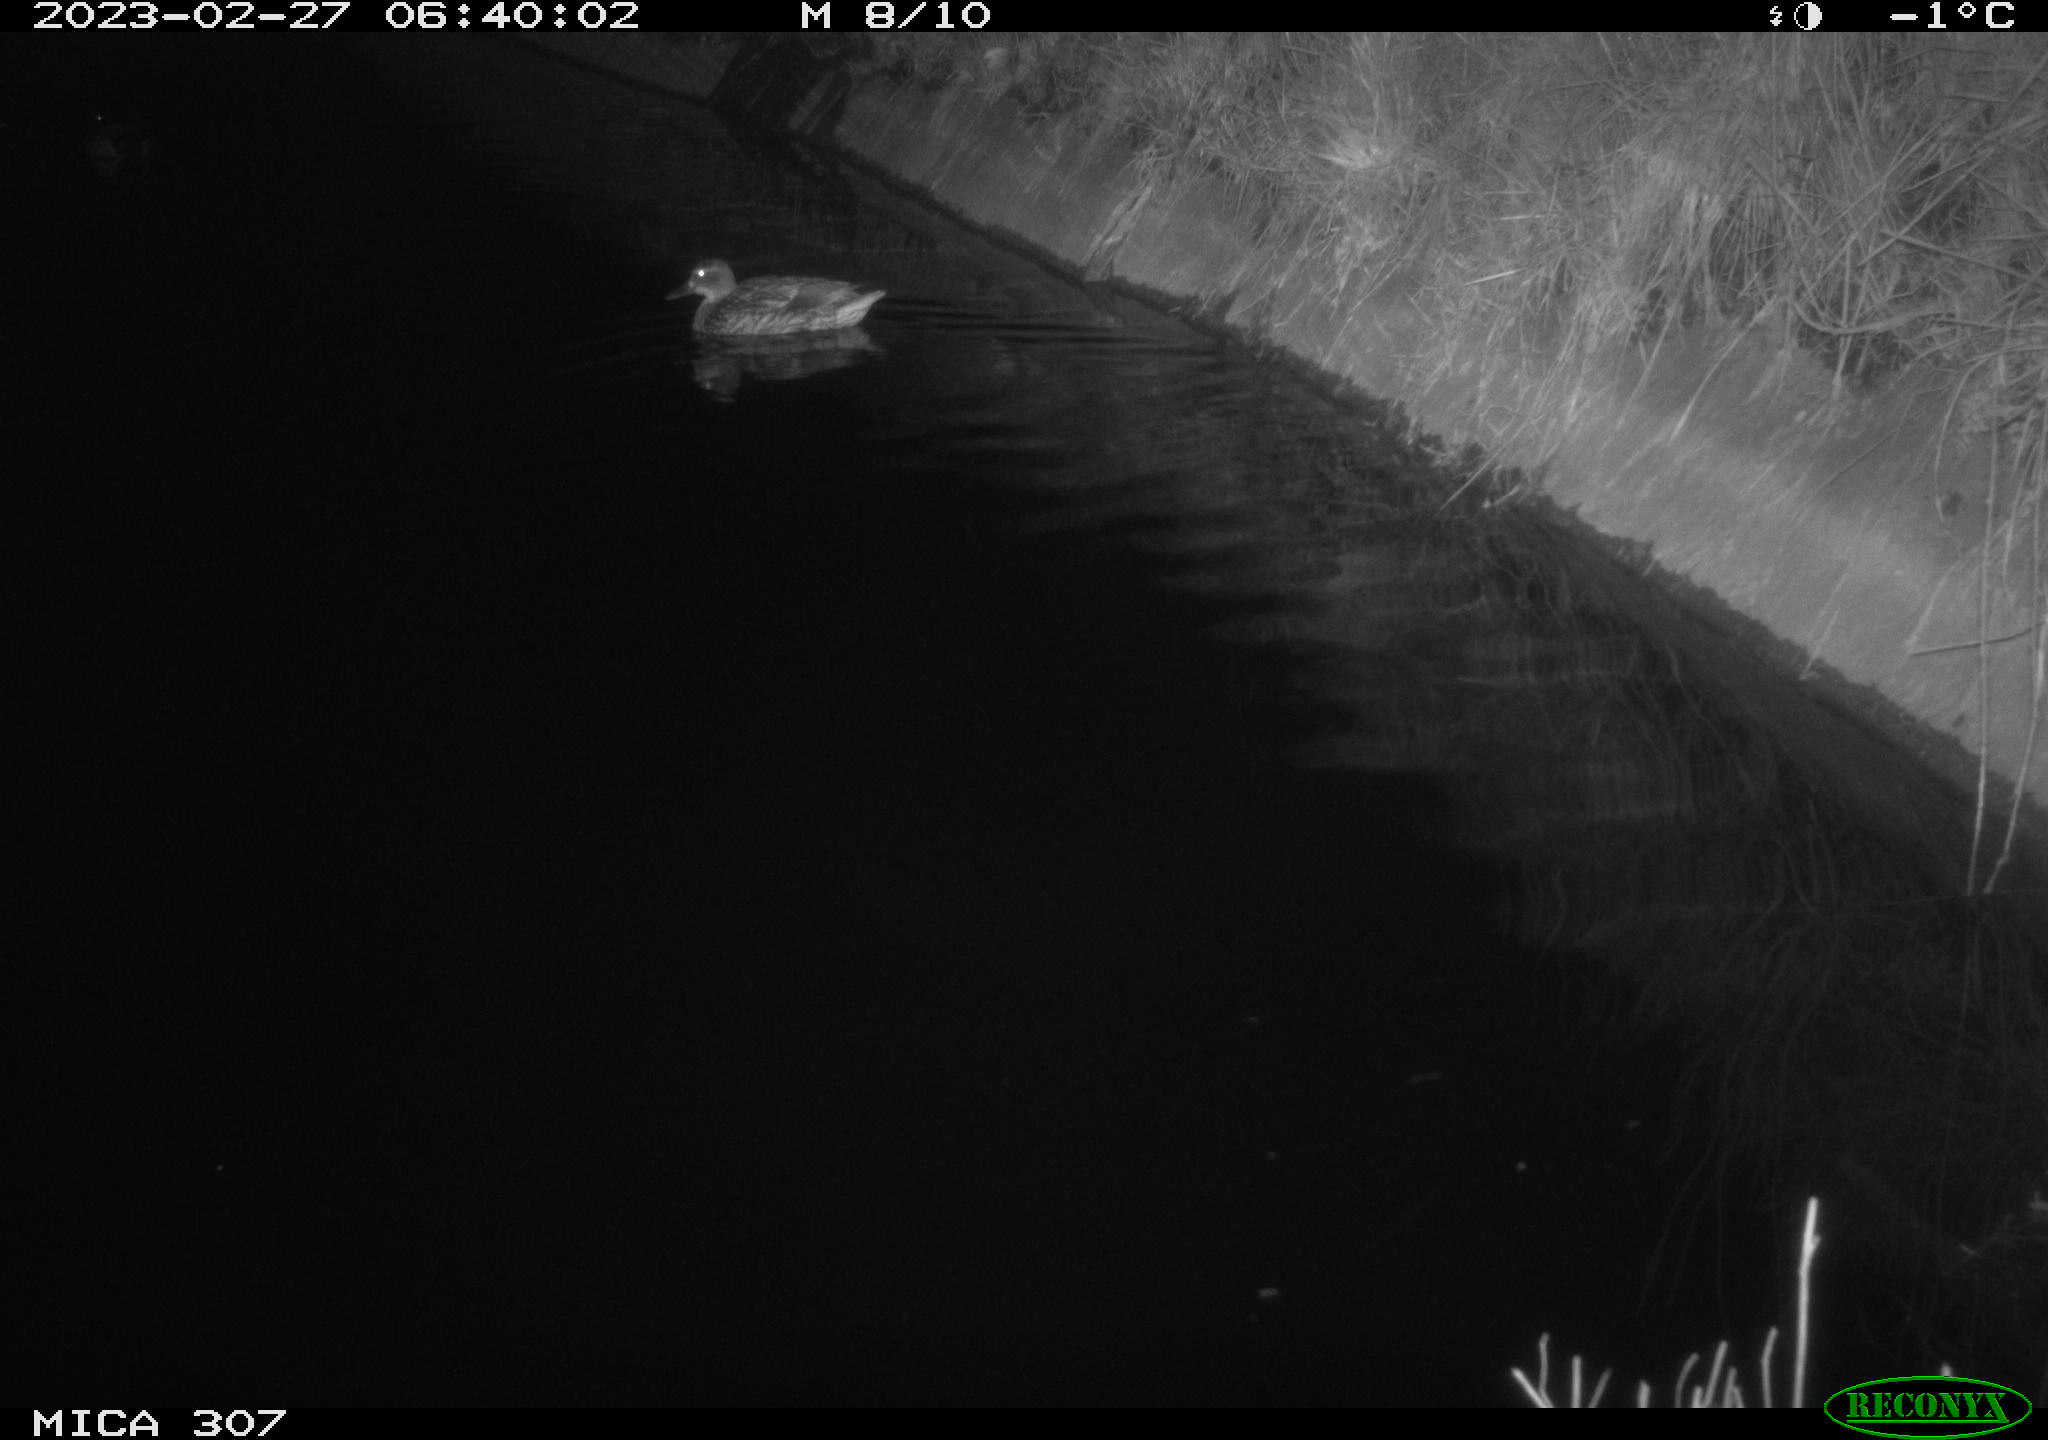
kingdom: Animalia
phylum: Chordata
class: Aves
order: Gruiformes
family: Rallidae
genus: Fulica
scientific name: Fulica atra
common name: Eurasian coot
